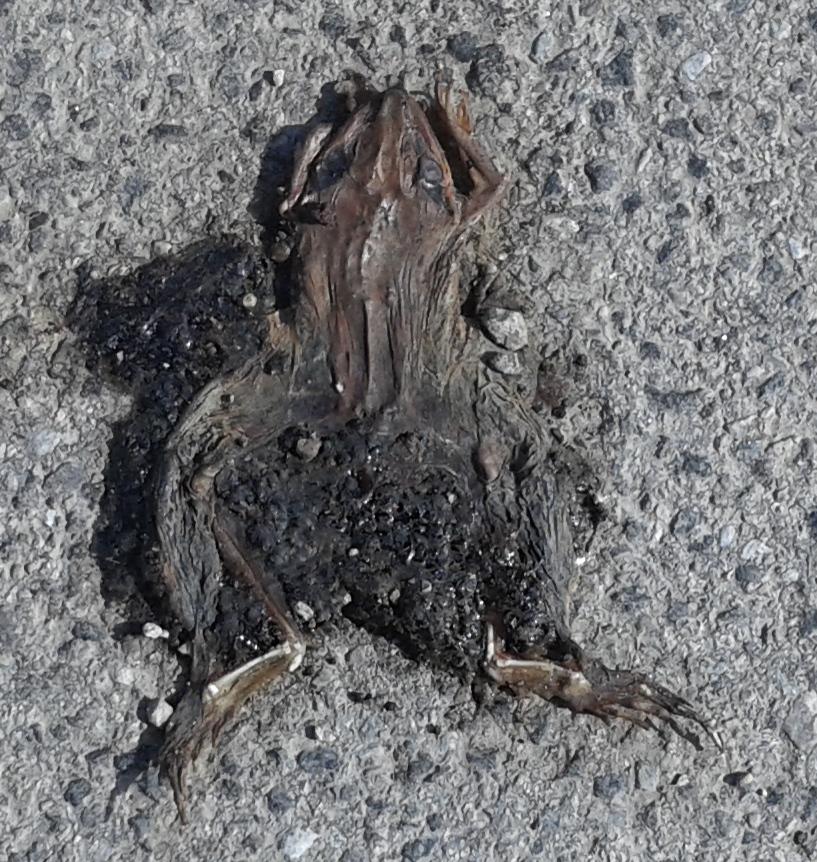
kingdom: Animalia
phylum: Chordata
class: Amphibia
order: Anura
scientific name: Anura
